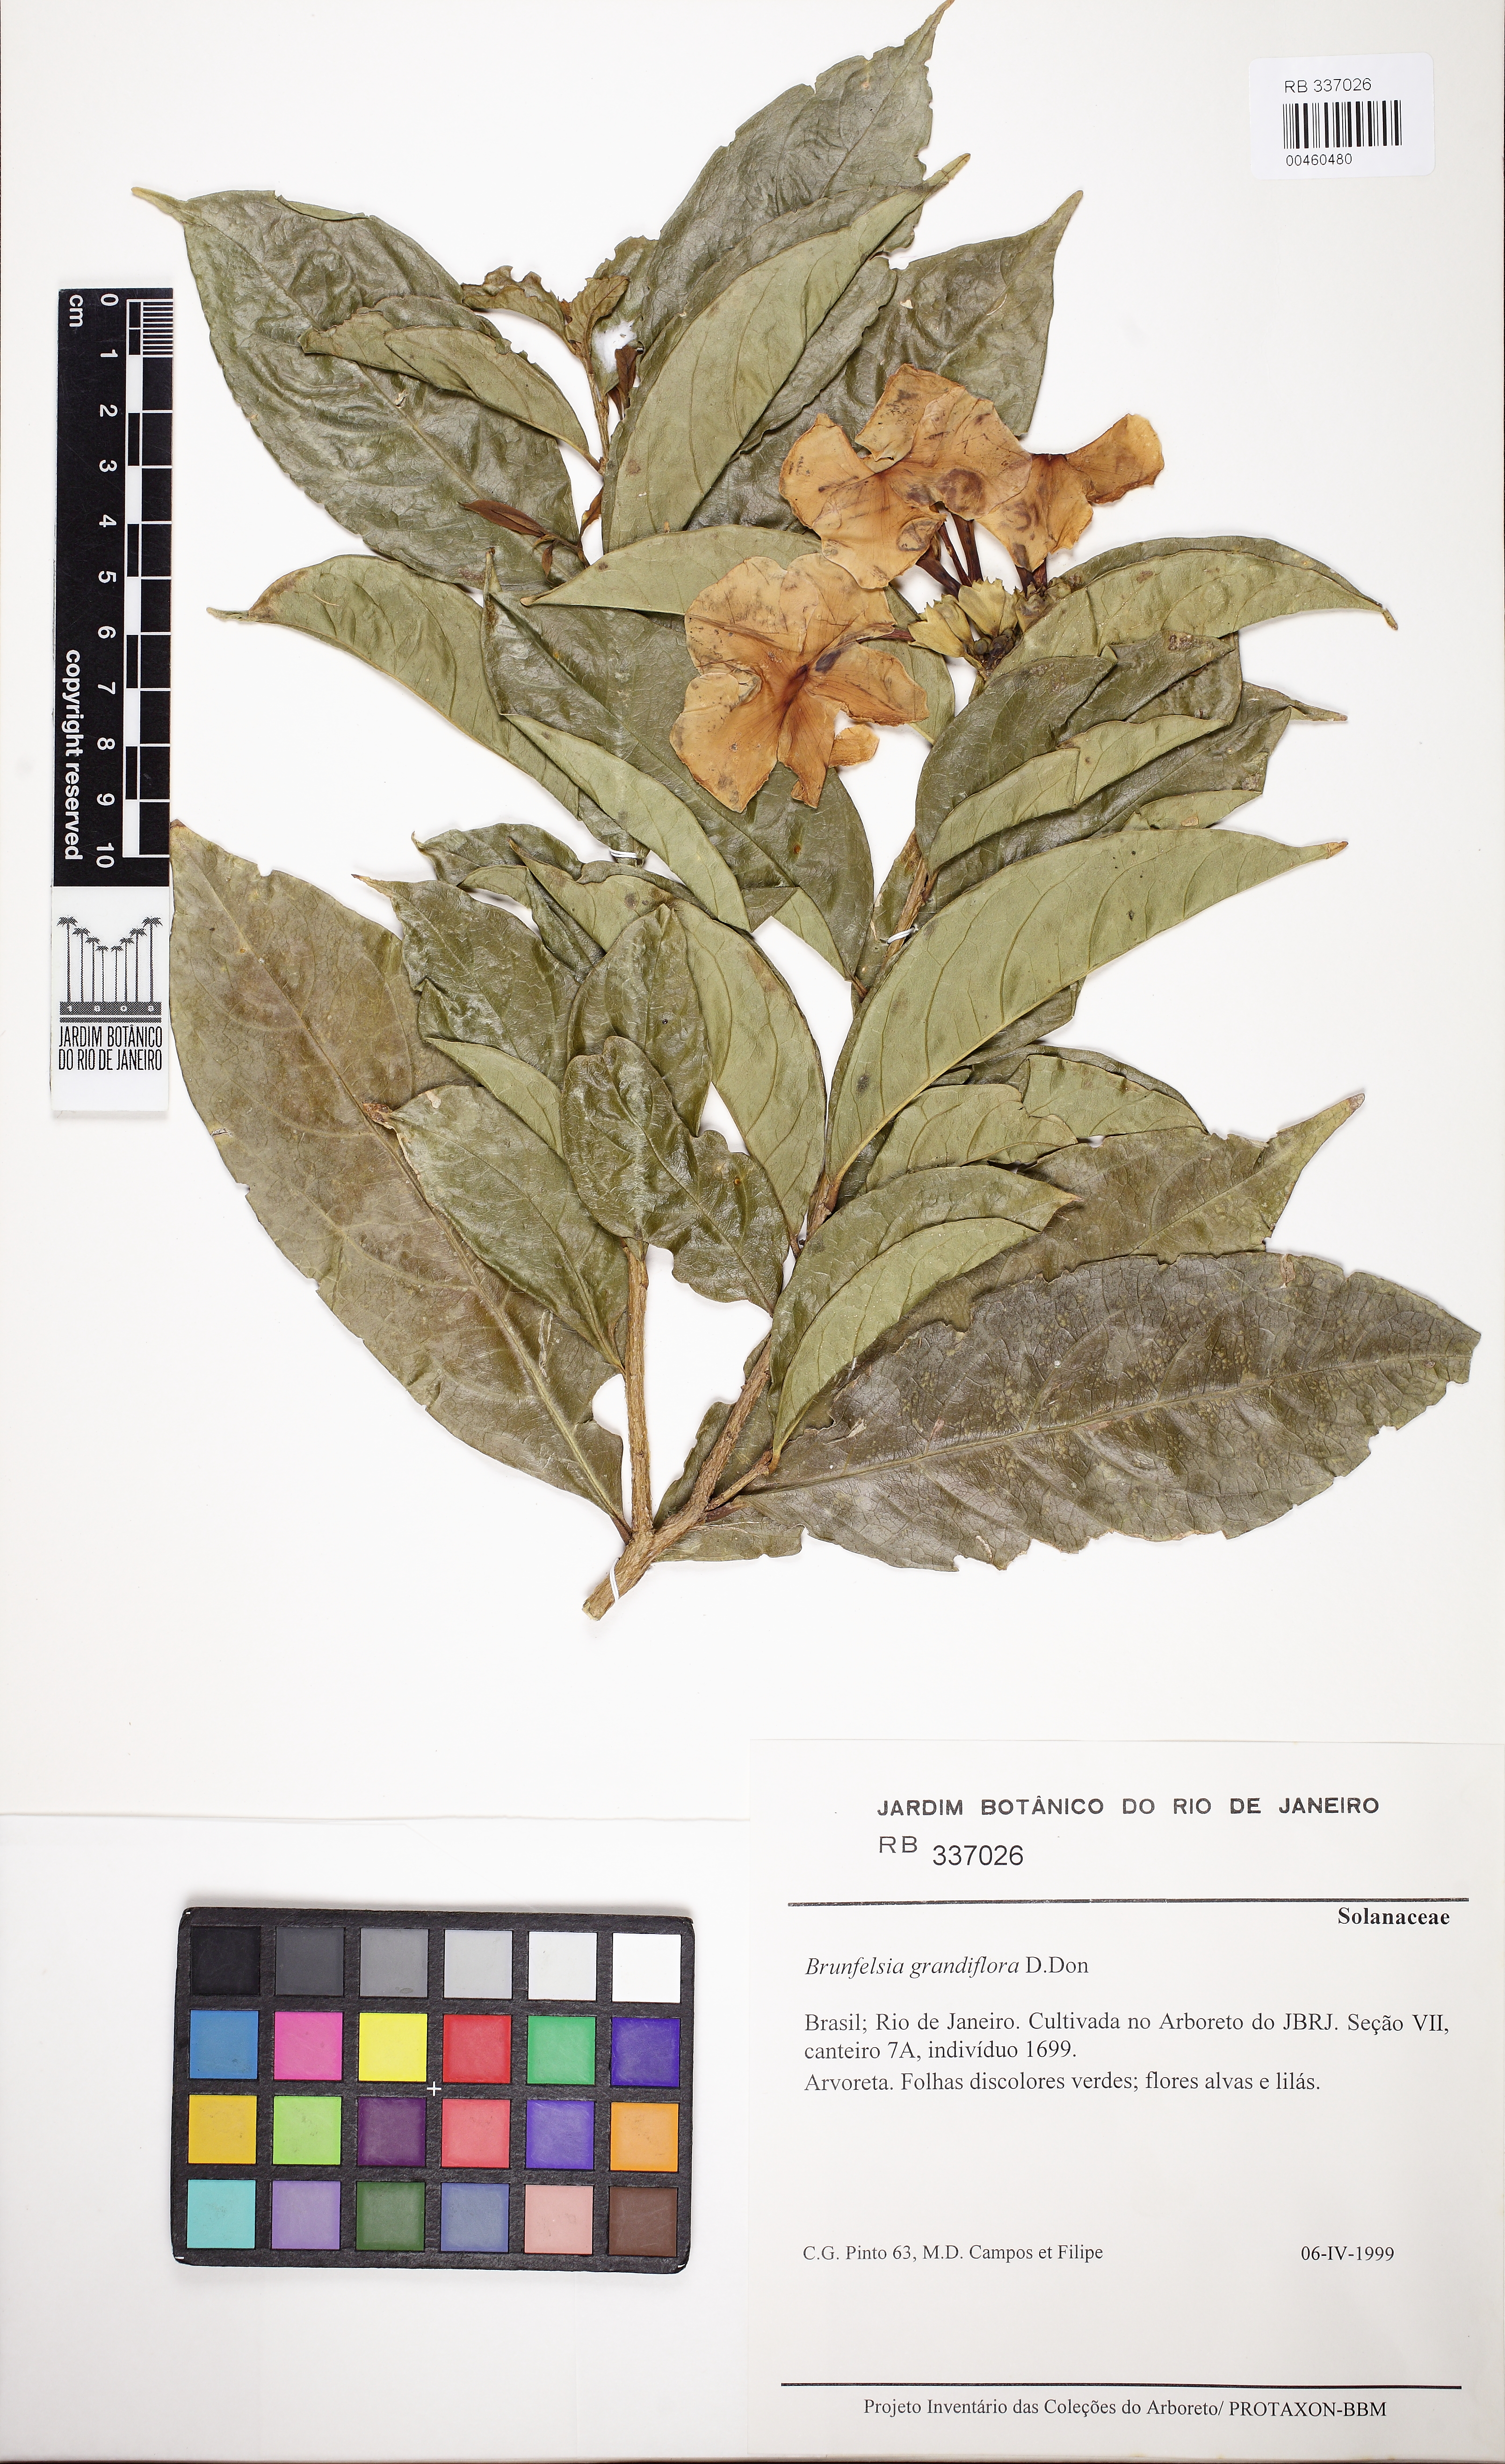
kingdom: Plantae
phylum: Tracheophyta
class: Magnoliopsida
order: Solanales
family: Solanaceae
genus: Brunfelsia
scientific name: Brunfelsia grandiflora
